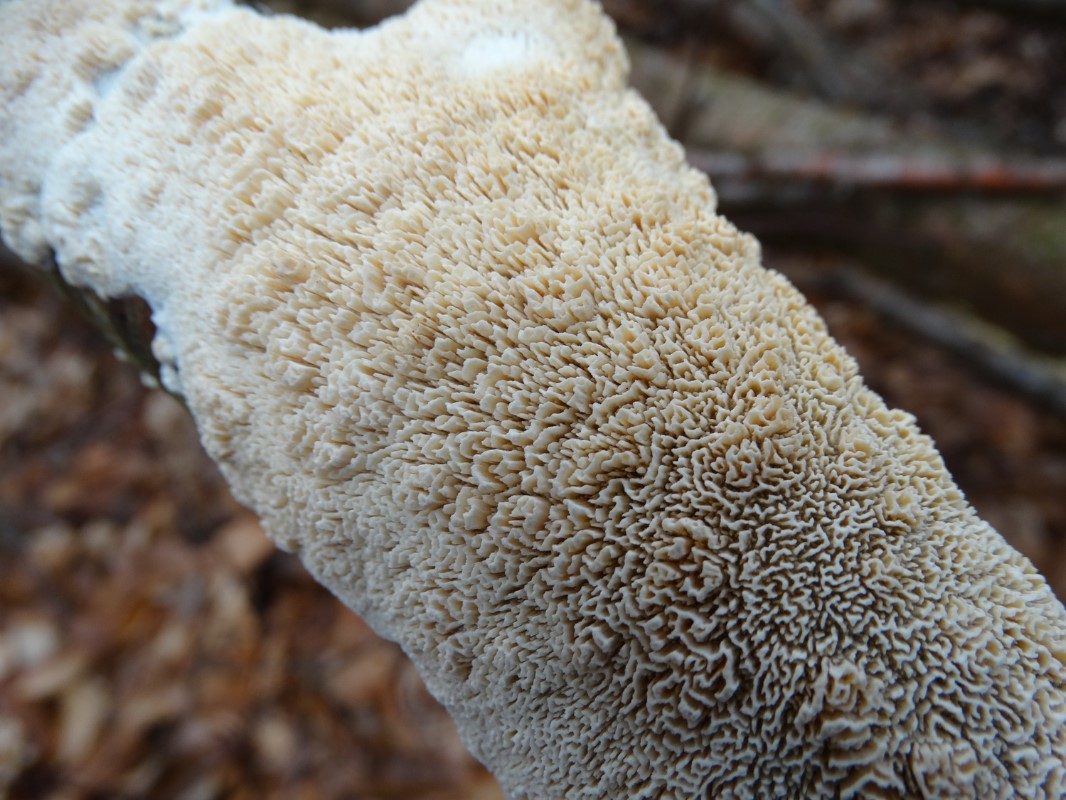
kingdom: Fungi
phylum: Basidiomycota
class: Agaricomycetes
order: Hymenochaetales
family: Schizoporaceae
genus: Schizopora
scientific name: Schizopora paradoxa
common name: hvid tandsvamp
